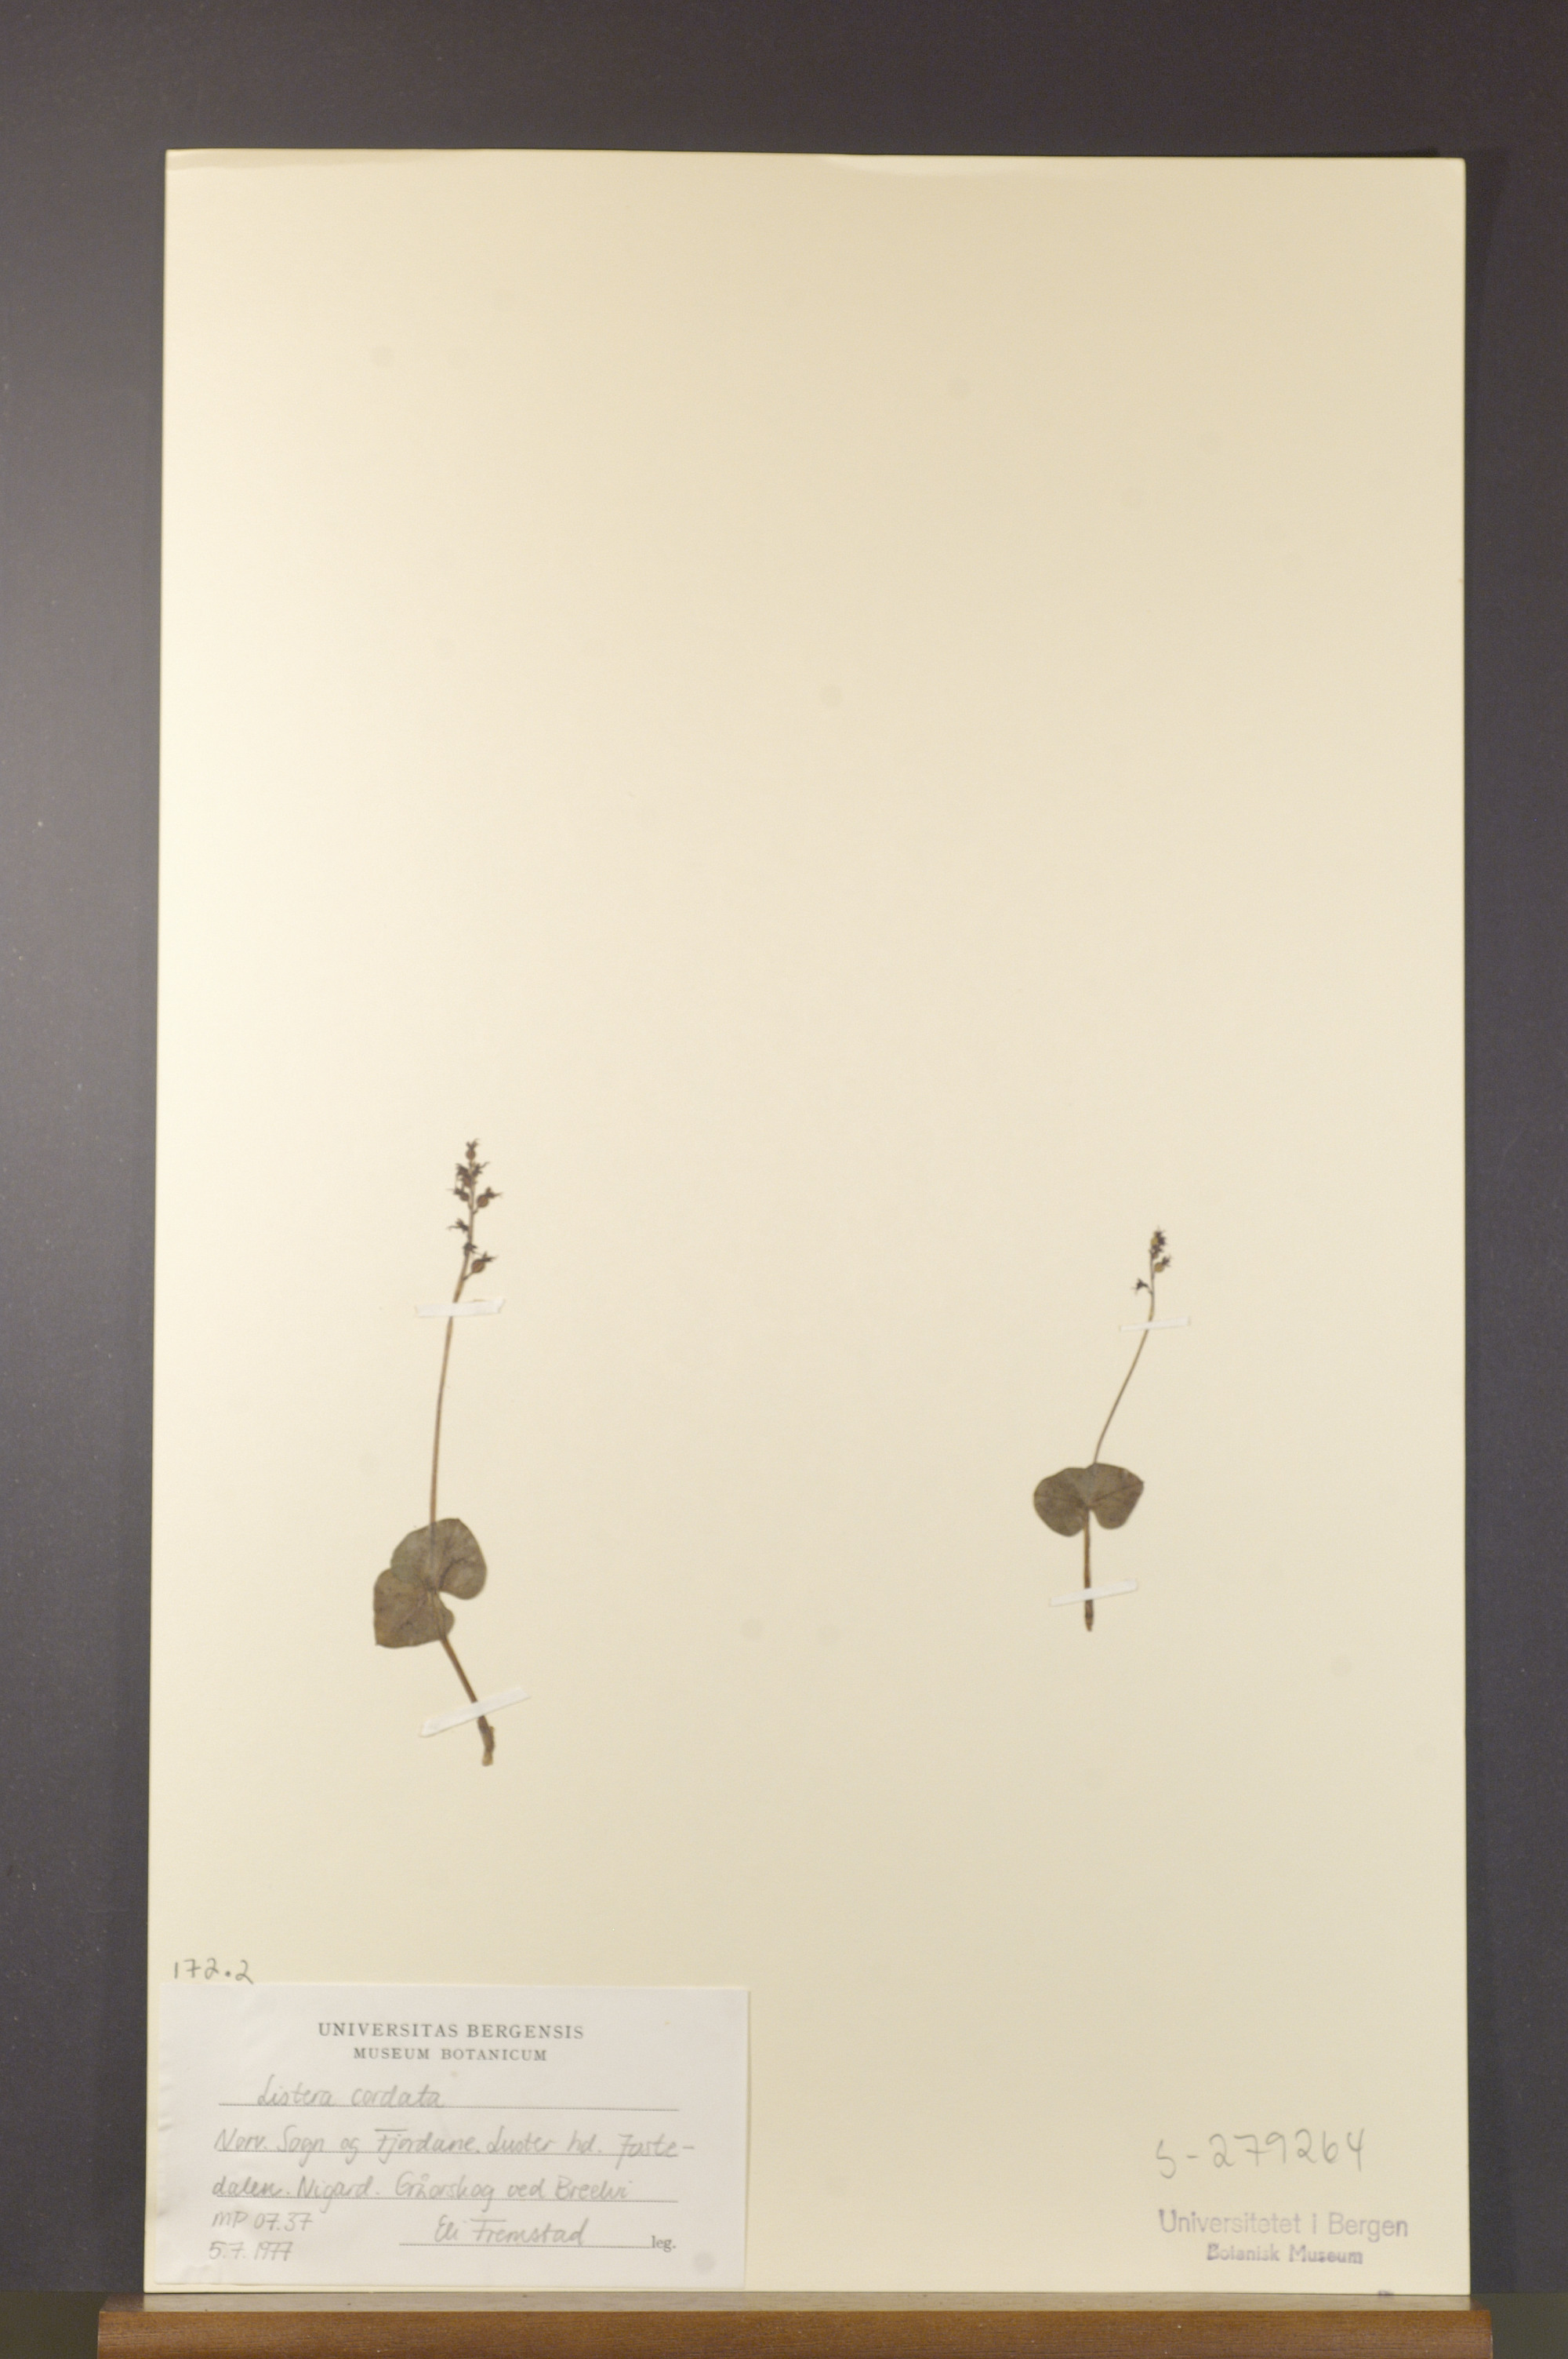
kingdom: Plantae
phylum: Tracheophyta
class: Liliopsida
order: Asparagales
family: Orchidaceae
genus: Neottia
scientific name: Neottia cordata
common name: Lesser twayblade
